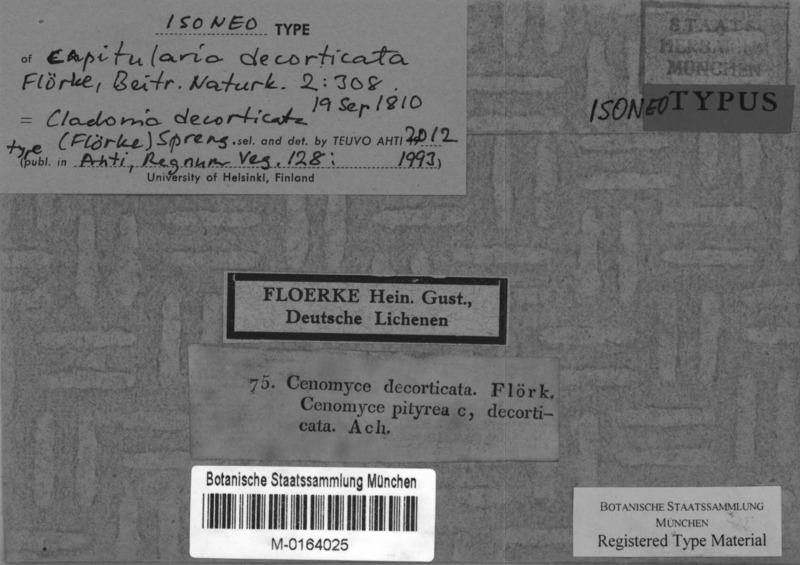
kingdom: Fungi
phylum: Ascomycota
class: Lecanoromycetes
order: Lecanorales
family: Cladoniaceae
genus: Cladonia
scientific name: Cladonia decorticata
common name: Branching pixie pebblehorn lichen
